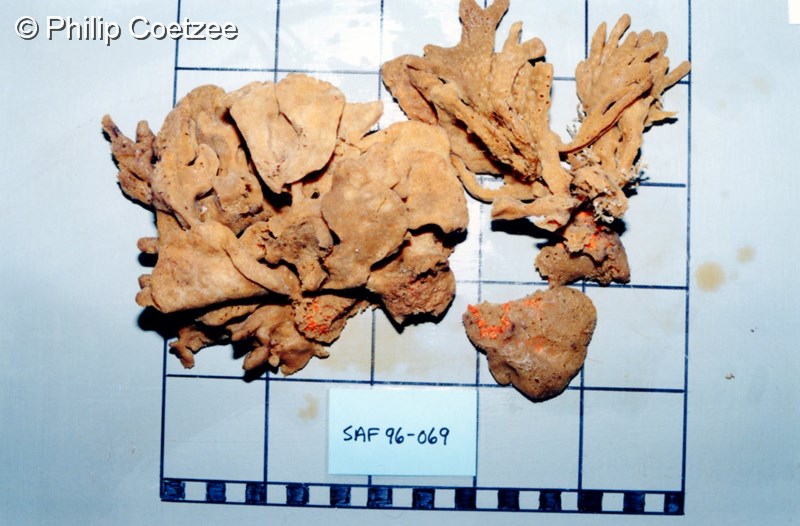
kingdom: Animalia
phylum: Porifera
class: Demospongiae
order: Poecilosclerida
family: Isodictyidae
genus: Isodictya
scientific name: Isodictya alata
